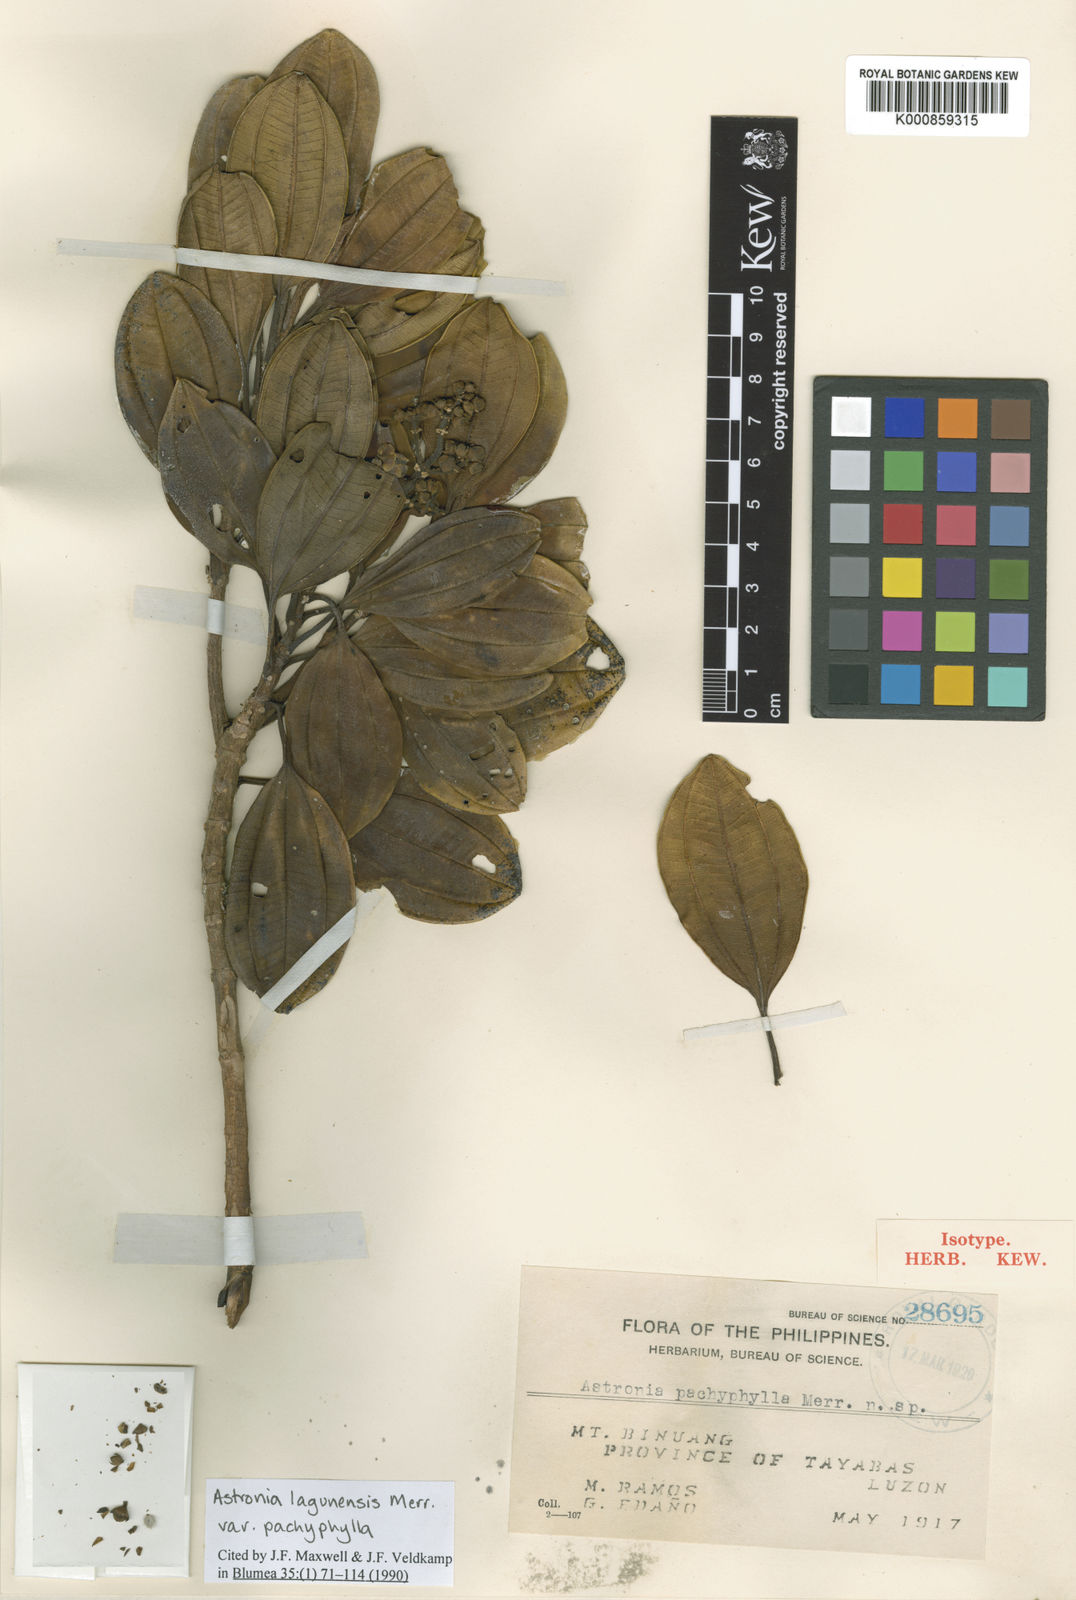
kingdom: Plantae
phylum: Tracheophyta
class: Magnoliopsida
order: Myrtales
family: Melastomataceae
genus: Astronia
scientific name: Astronia lagunensis
